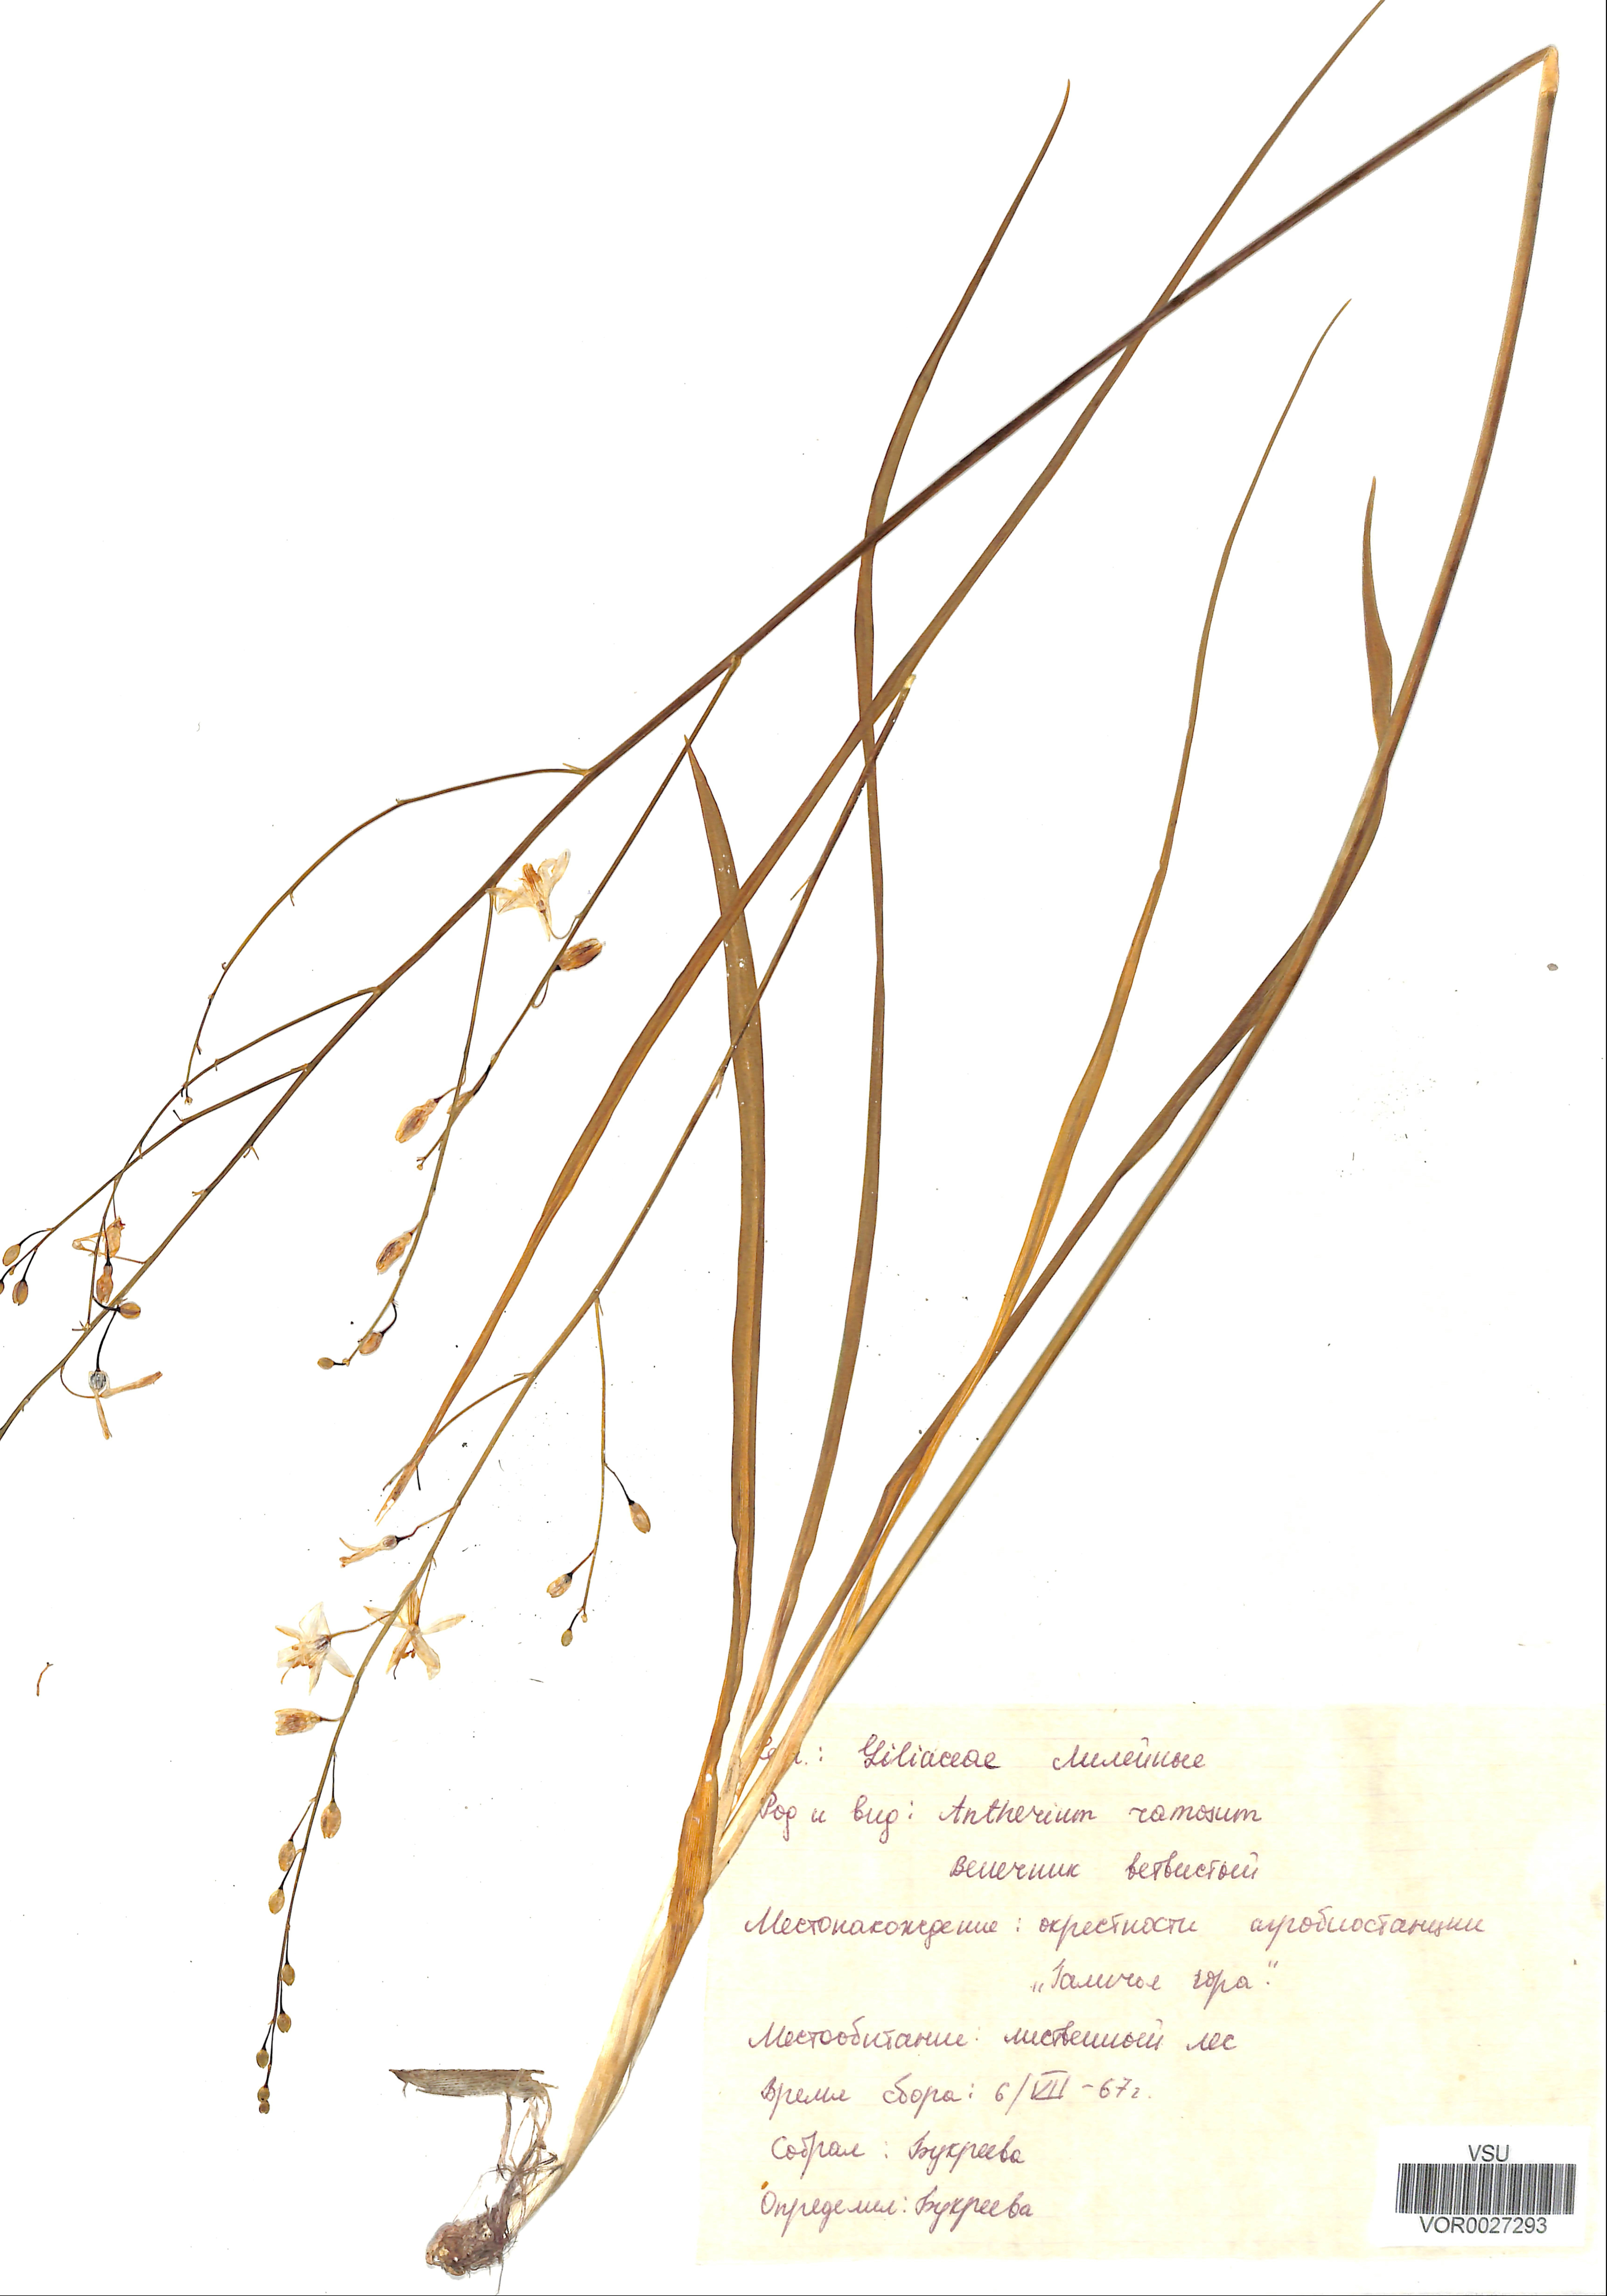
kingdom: Plantae
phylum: Tracheophyta
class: Liliopsida
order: Asparagales
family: Asparagaceae
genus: Anthericum
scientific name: Anthericum ramosum
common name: Branched st. bernard's-lily
